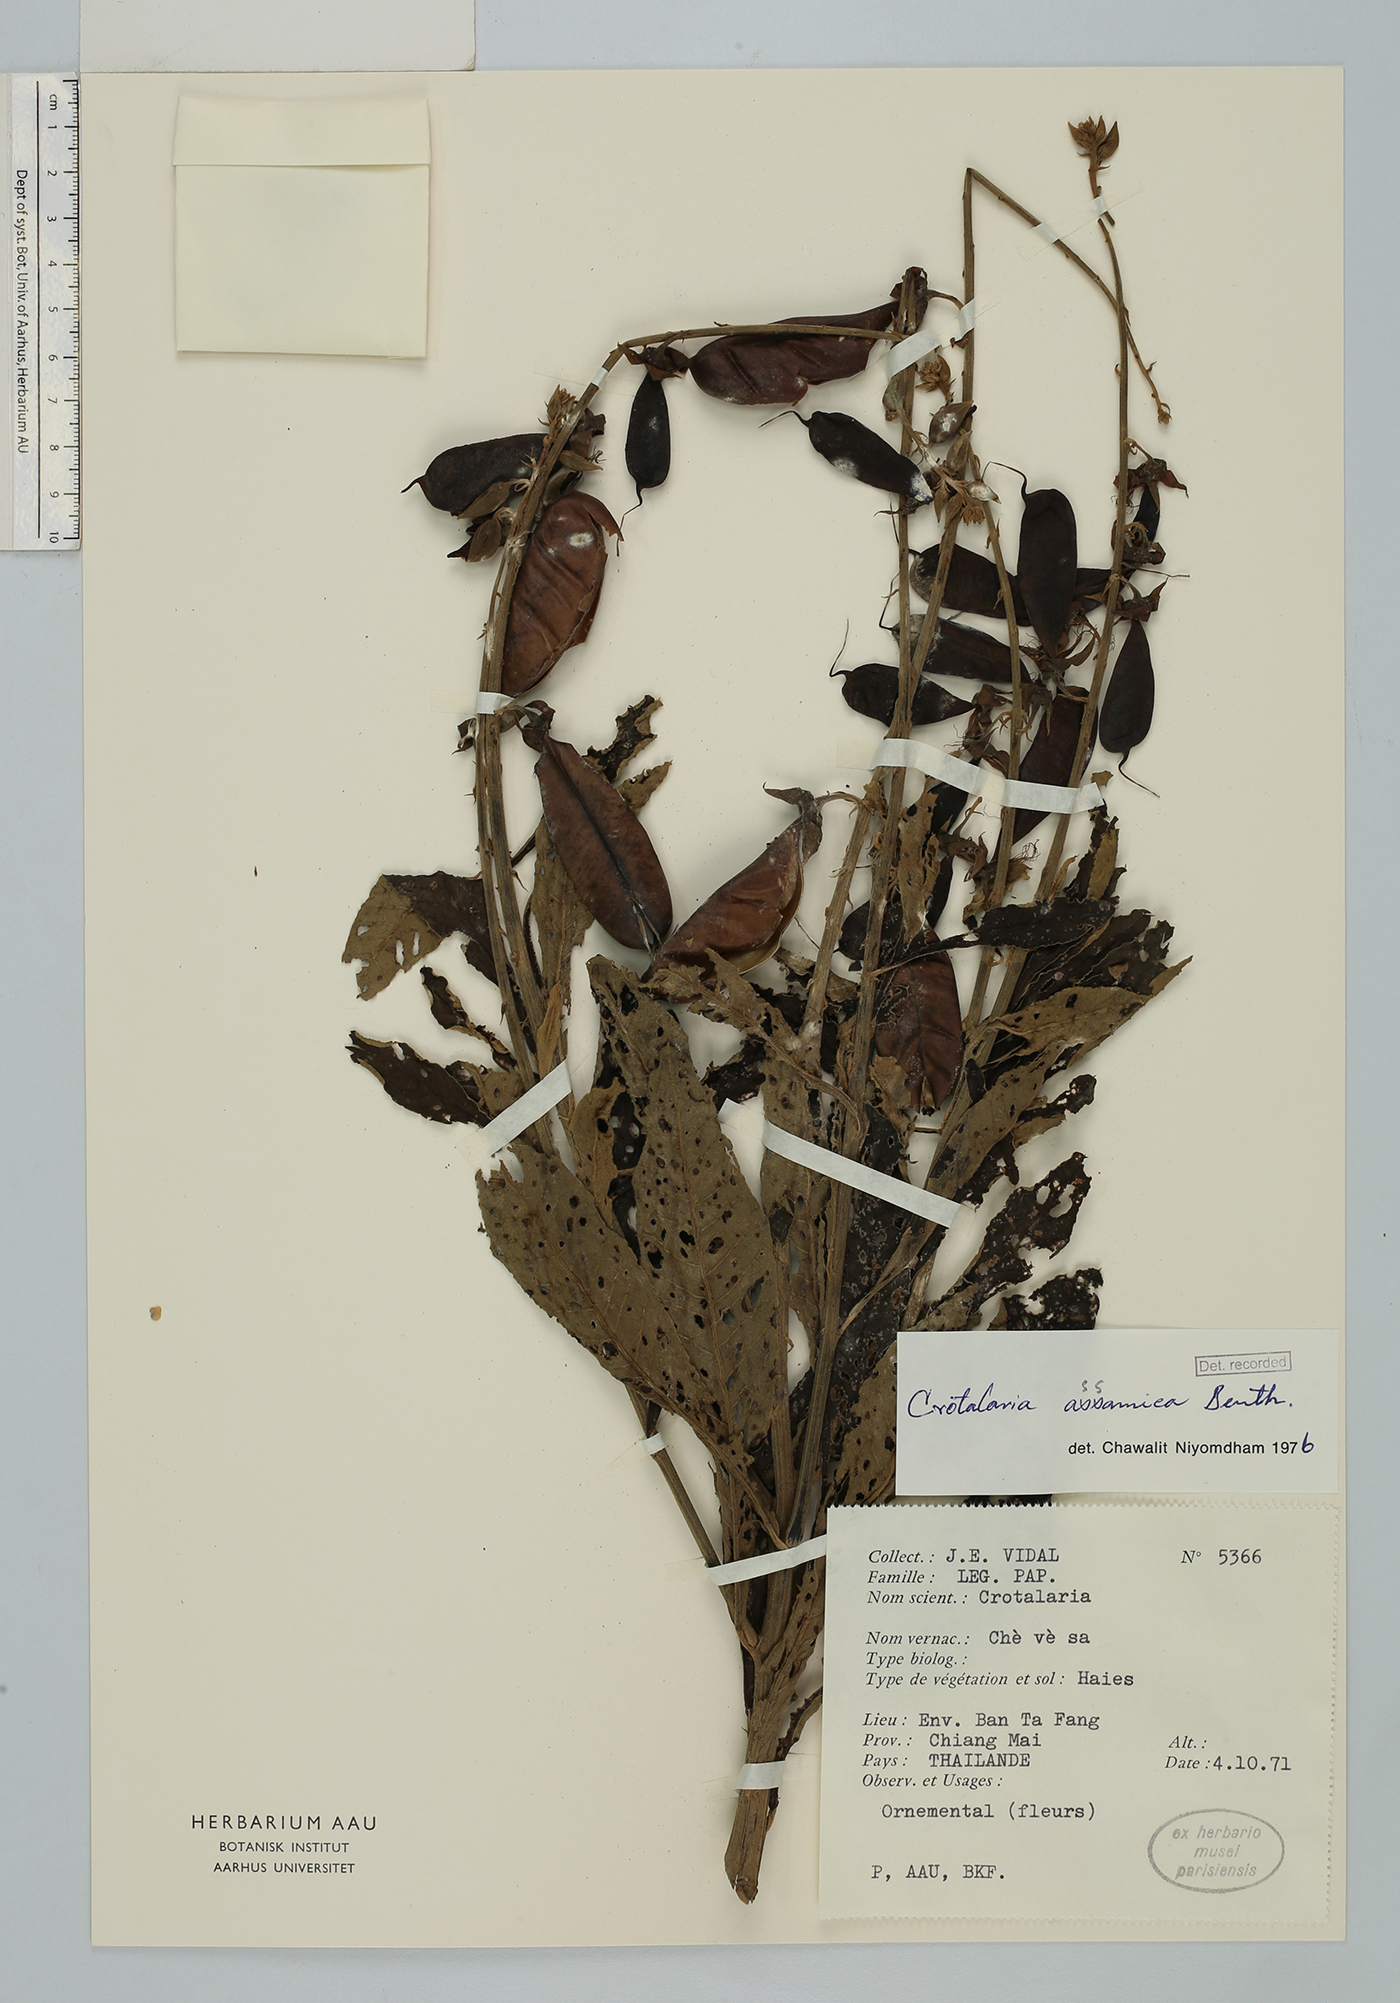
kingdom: Plantae
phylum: Tracheophyta
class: Magnoliopsida
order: Fabales
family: Fabaceae
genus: Crotalaria
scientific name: Crotalaria sericea
